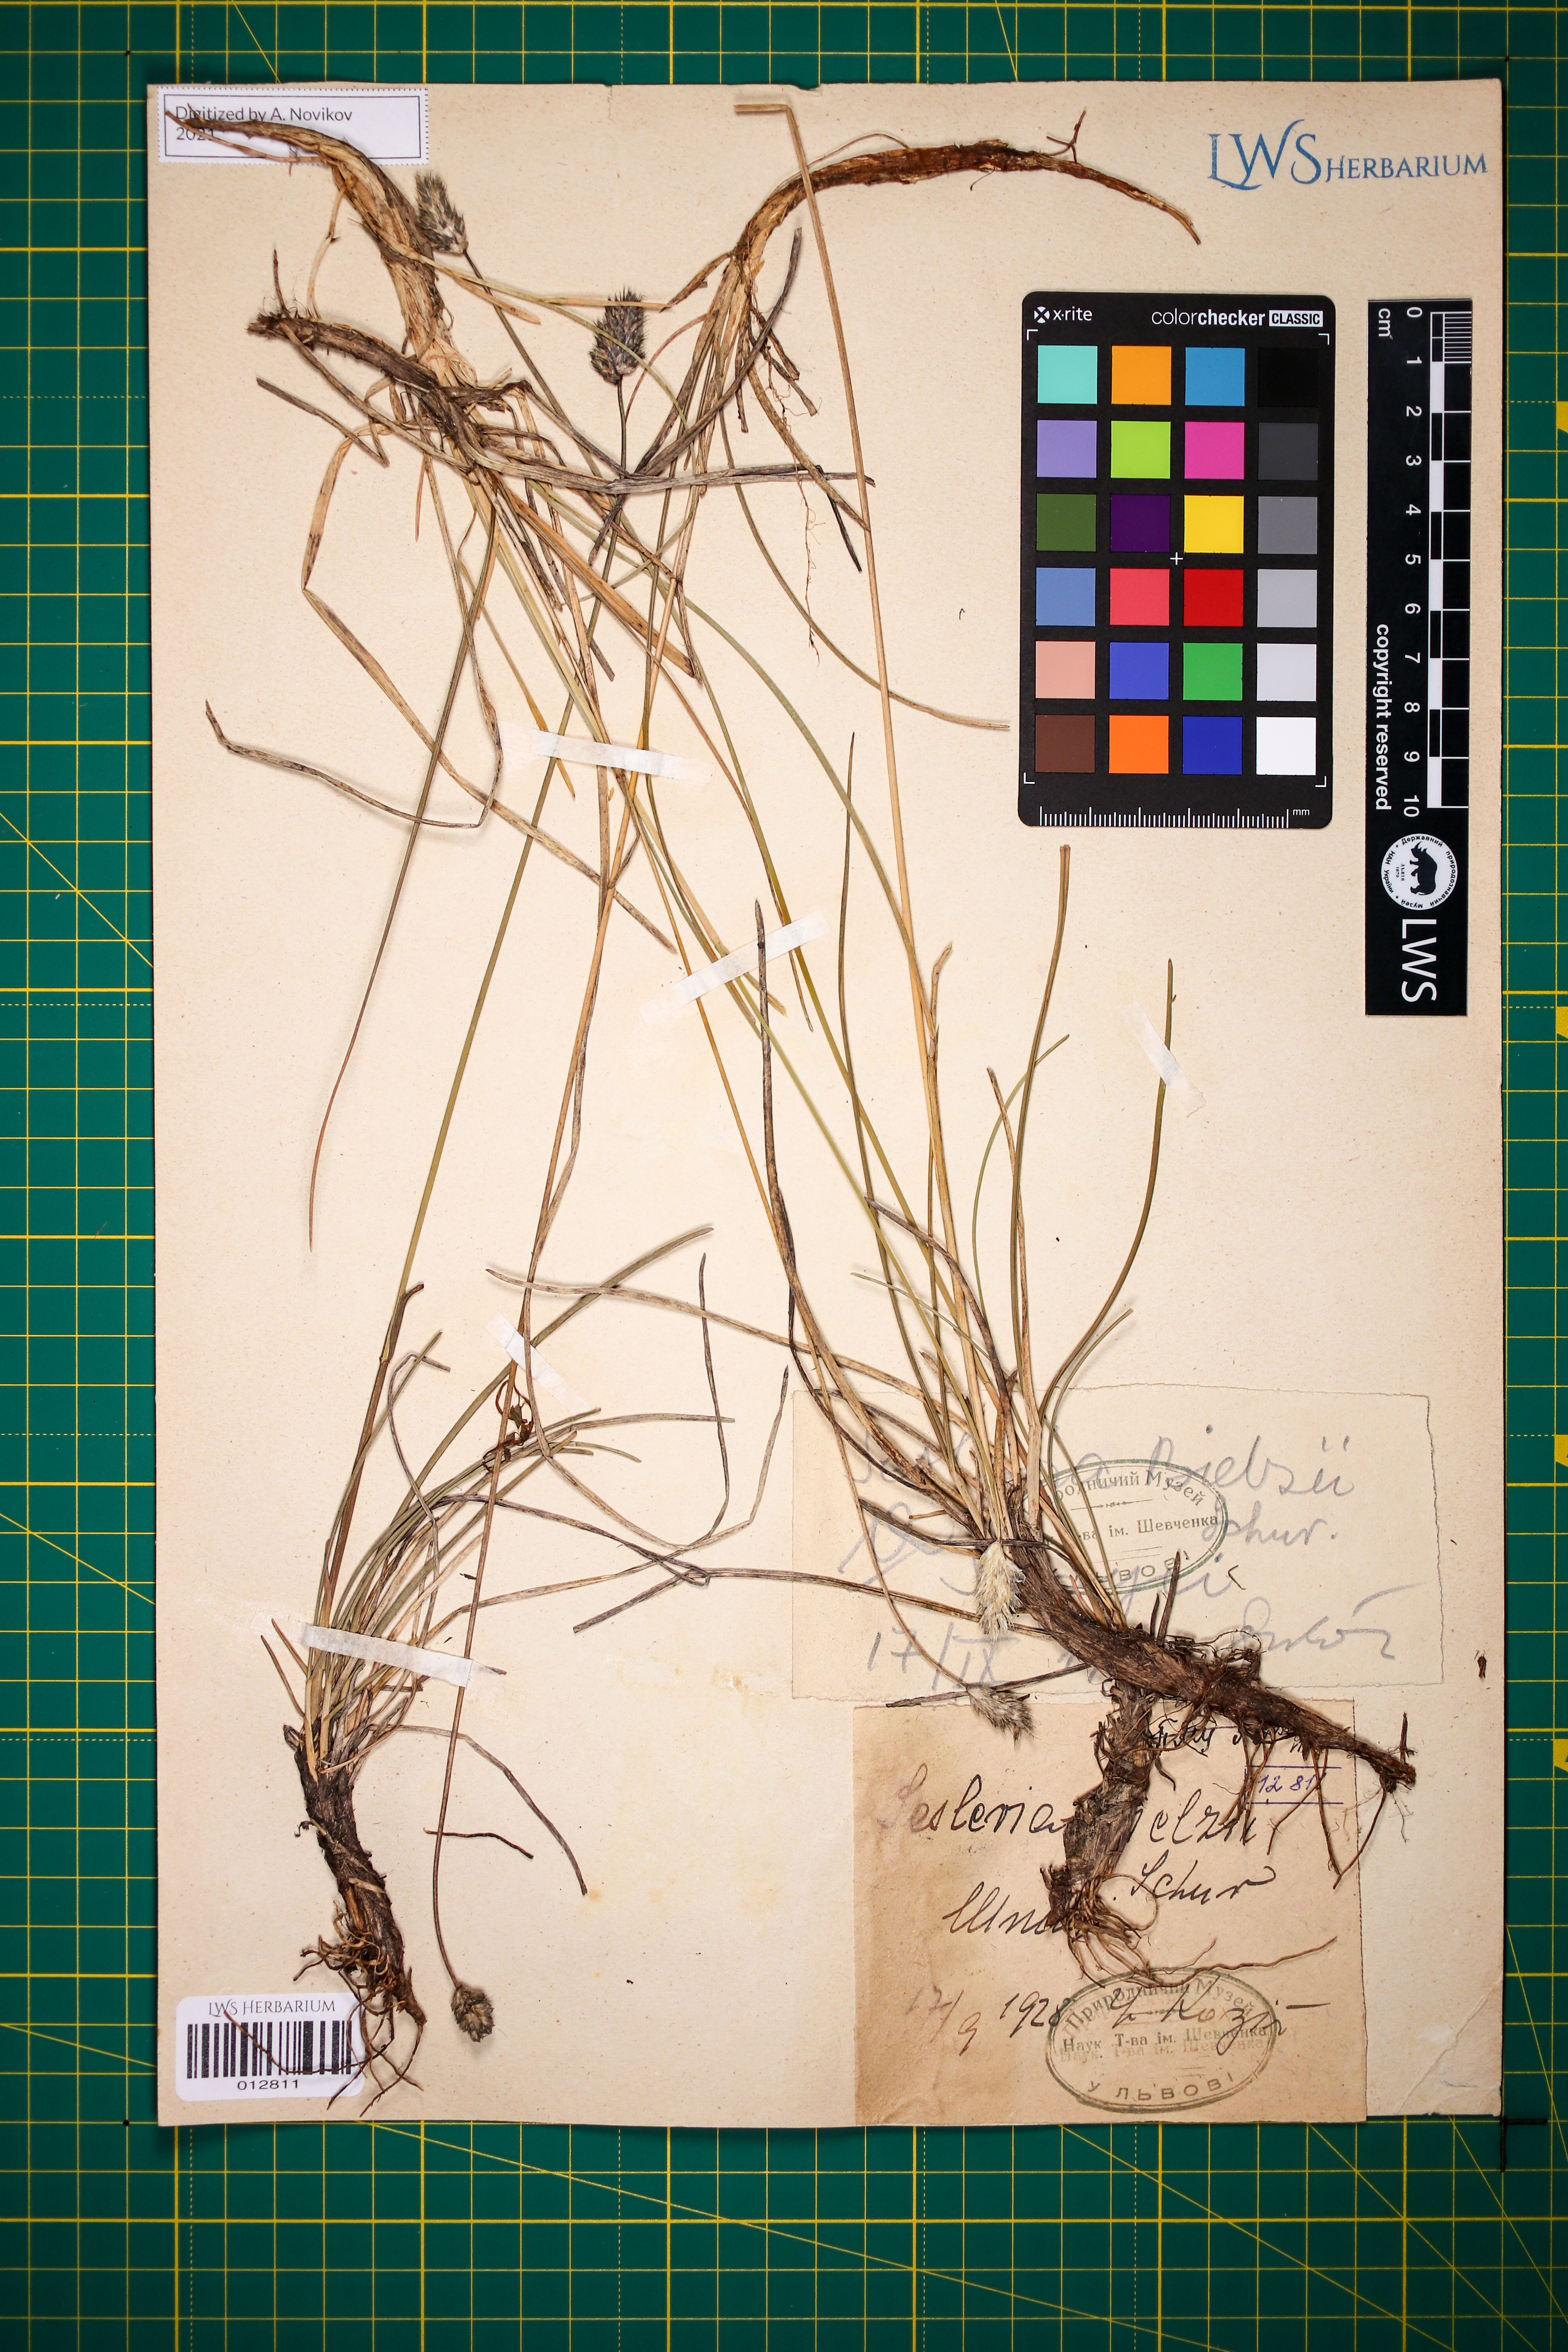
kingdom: Plantae
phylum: Tracheophyta
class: Liliopsida
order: Poales
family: Poaceae
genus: Sesleria
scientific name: Sesleria bielzii
